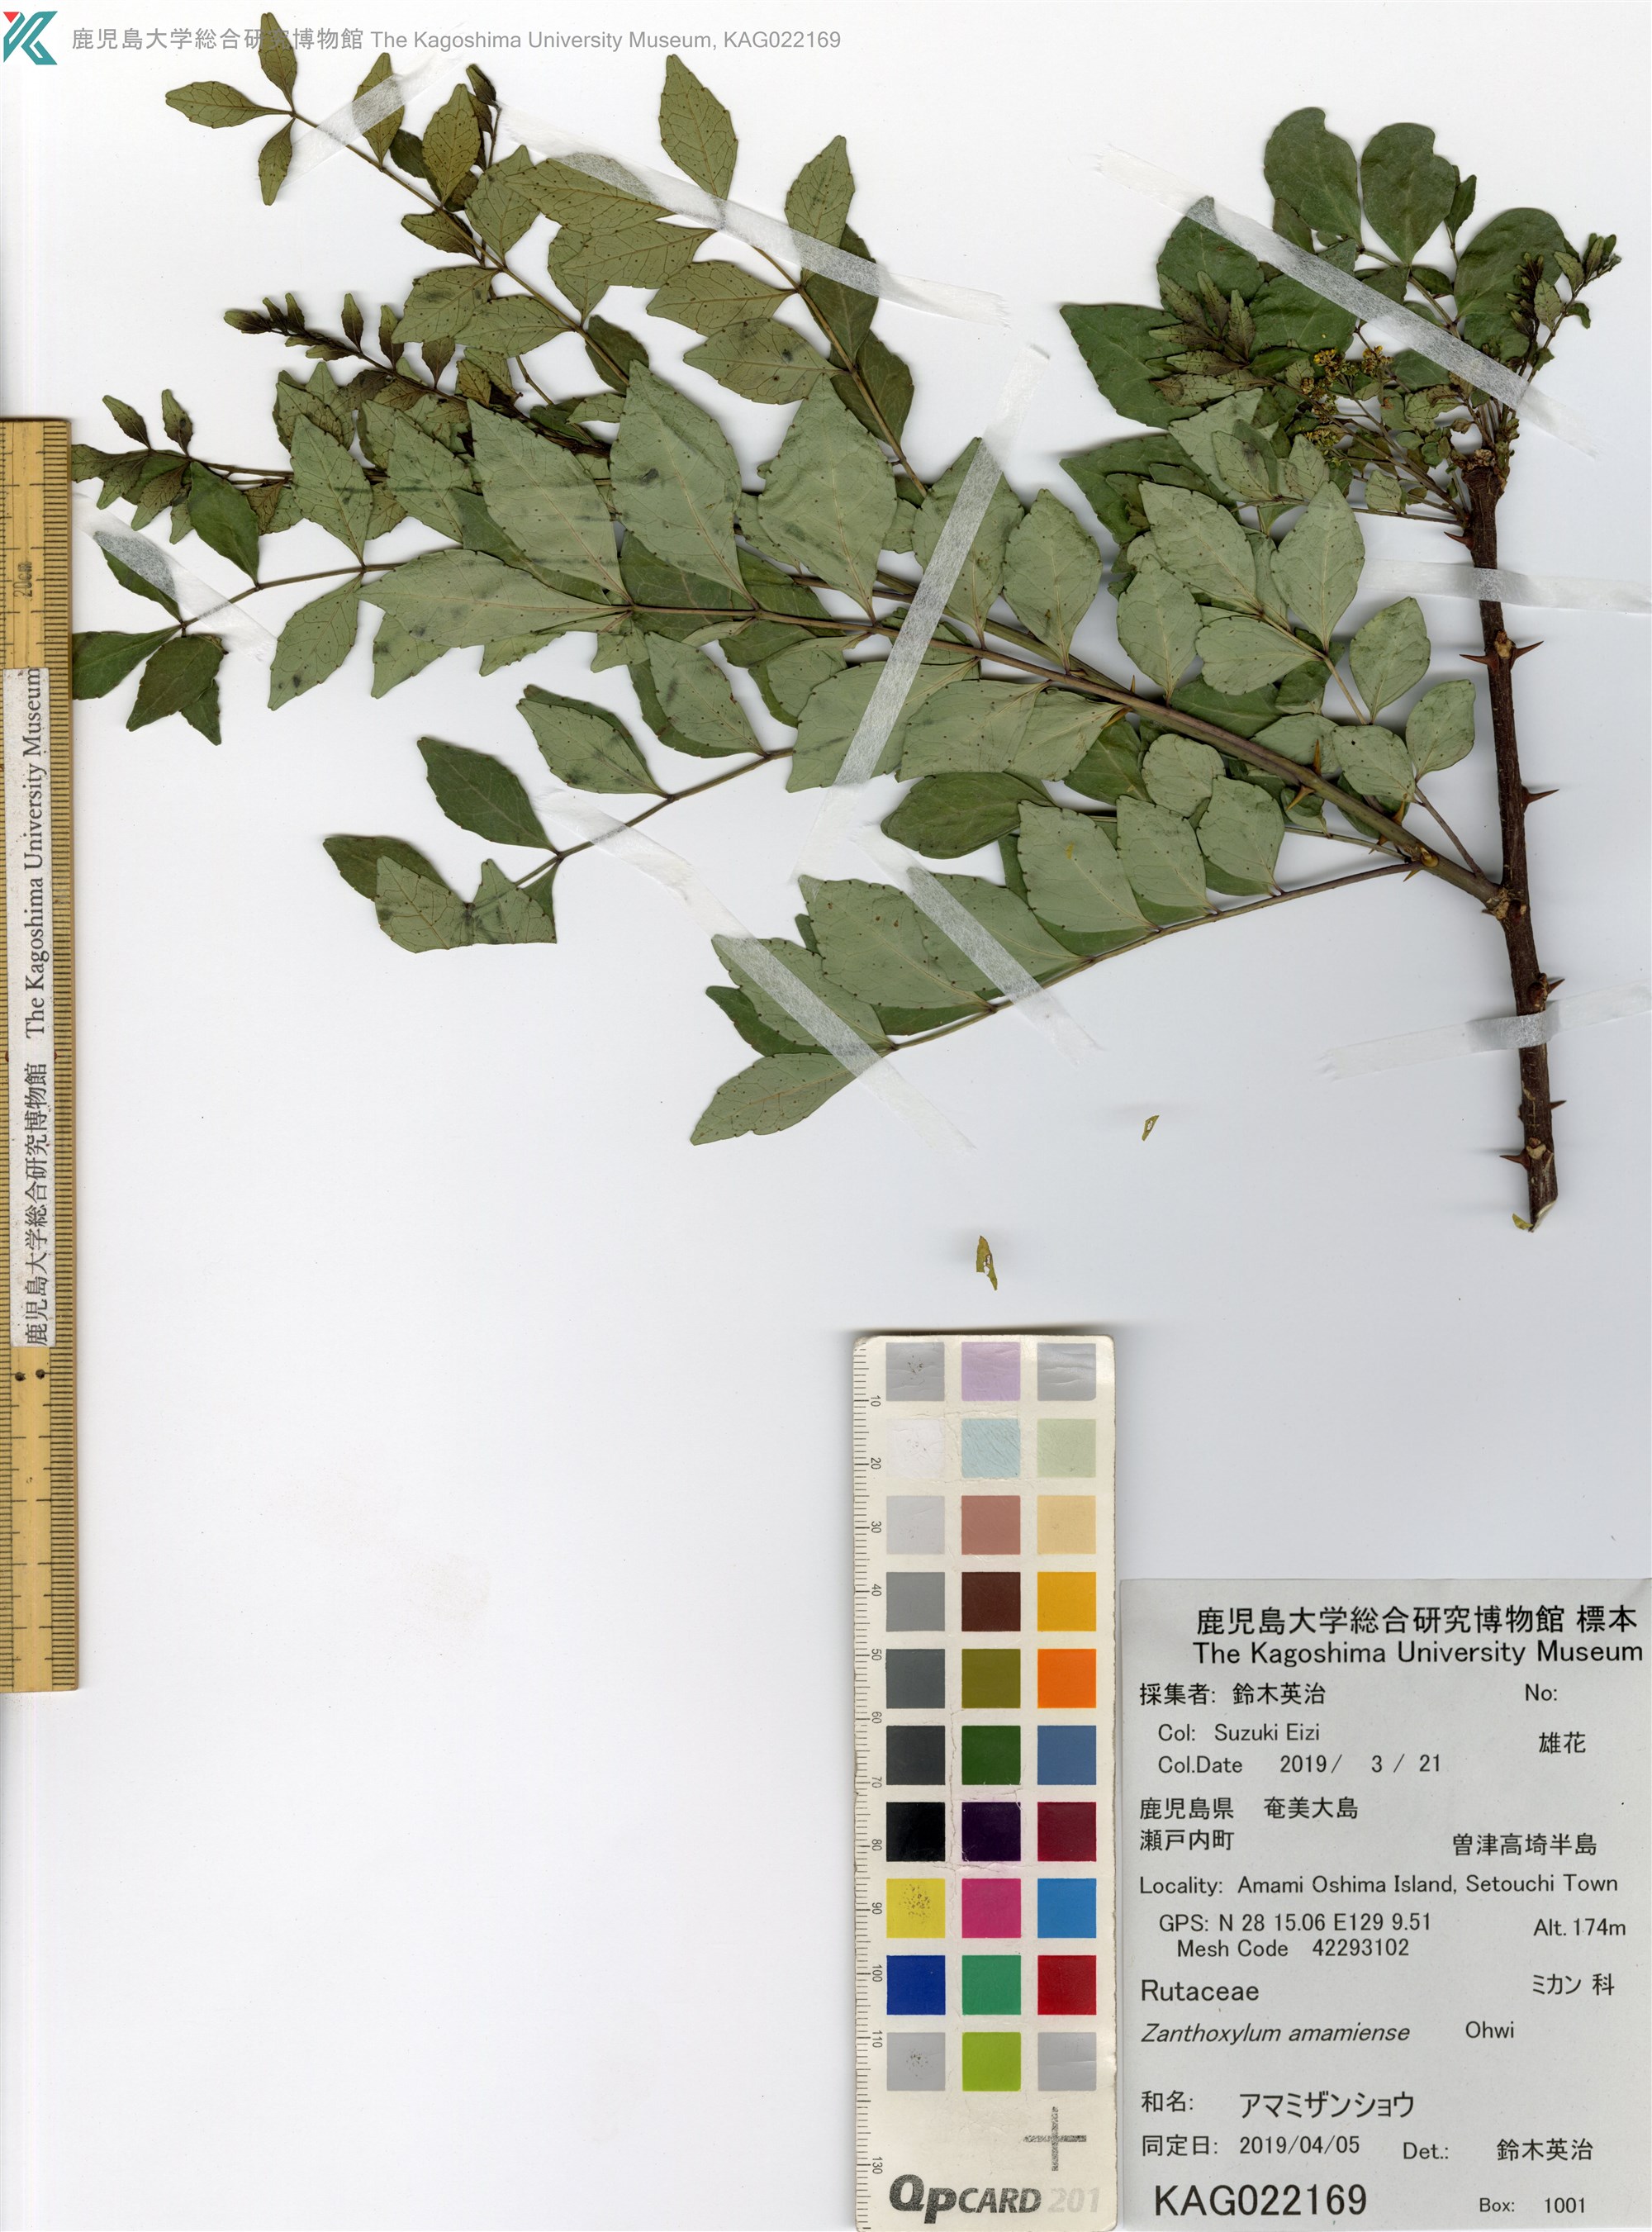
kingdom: Plantae
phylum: Tracheophyta
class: Magnoliopsida
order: Sapindales
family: Rutaceae
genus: Zanthoxylum
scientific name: Zanthoxylum amamiense
